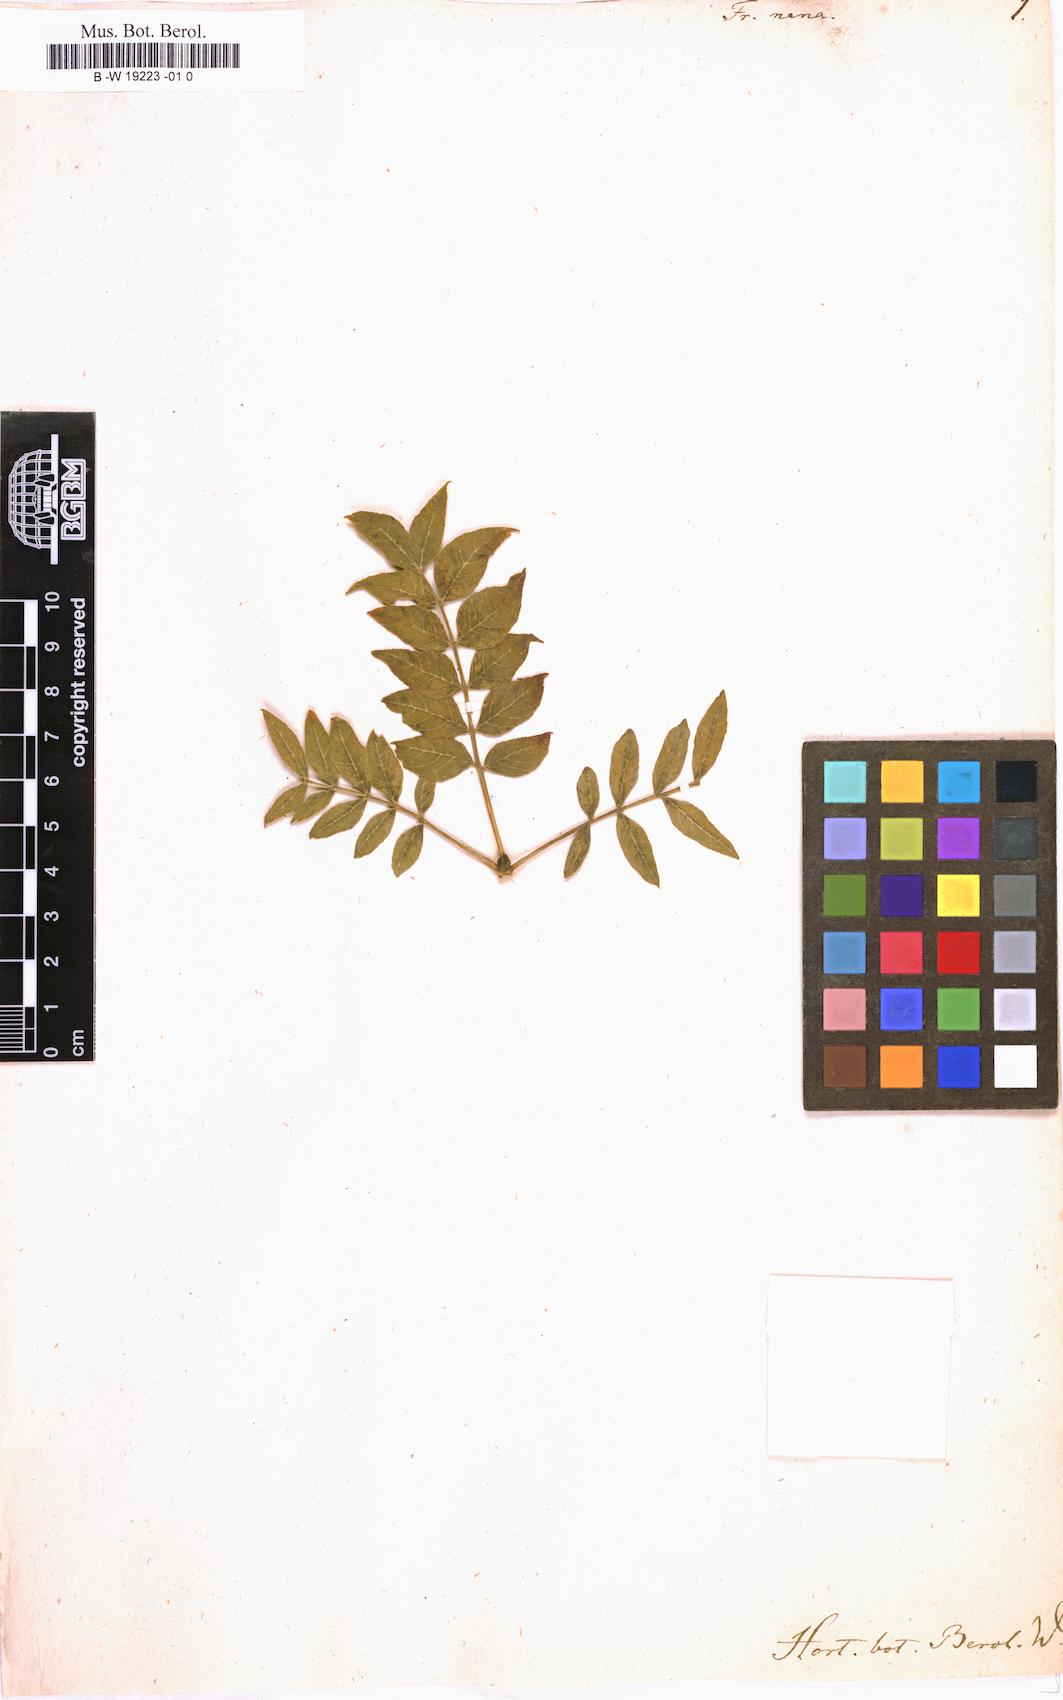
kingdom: Plantae
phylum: Tracheophyta
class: Magnoliopsida
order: Lamiales
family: Oleaceae
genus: Fraxinus
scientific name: Fraxinus excelsior
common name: European ash
